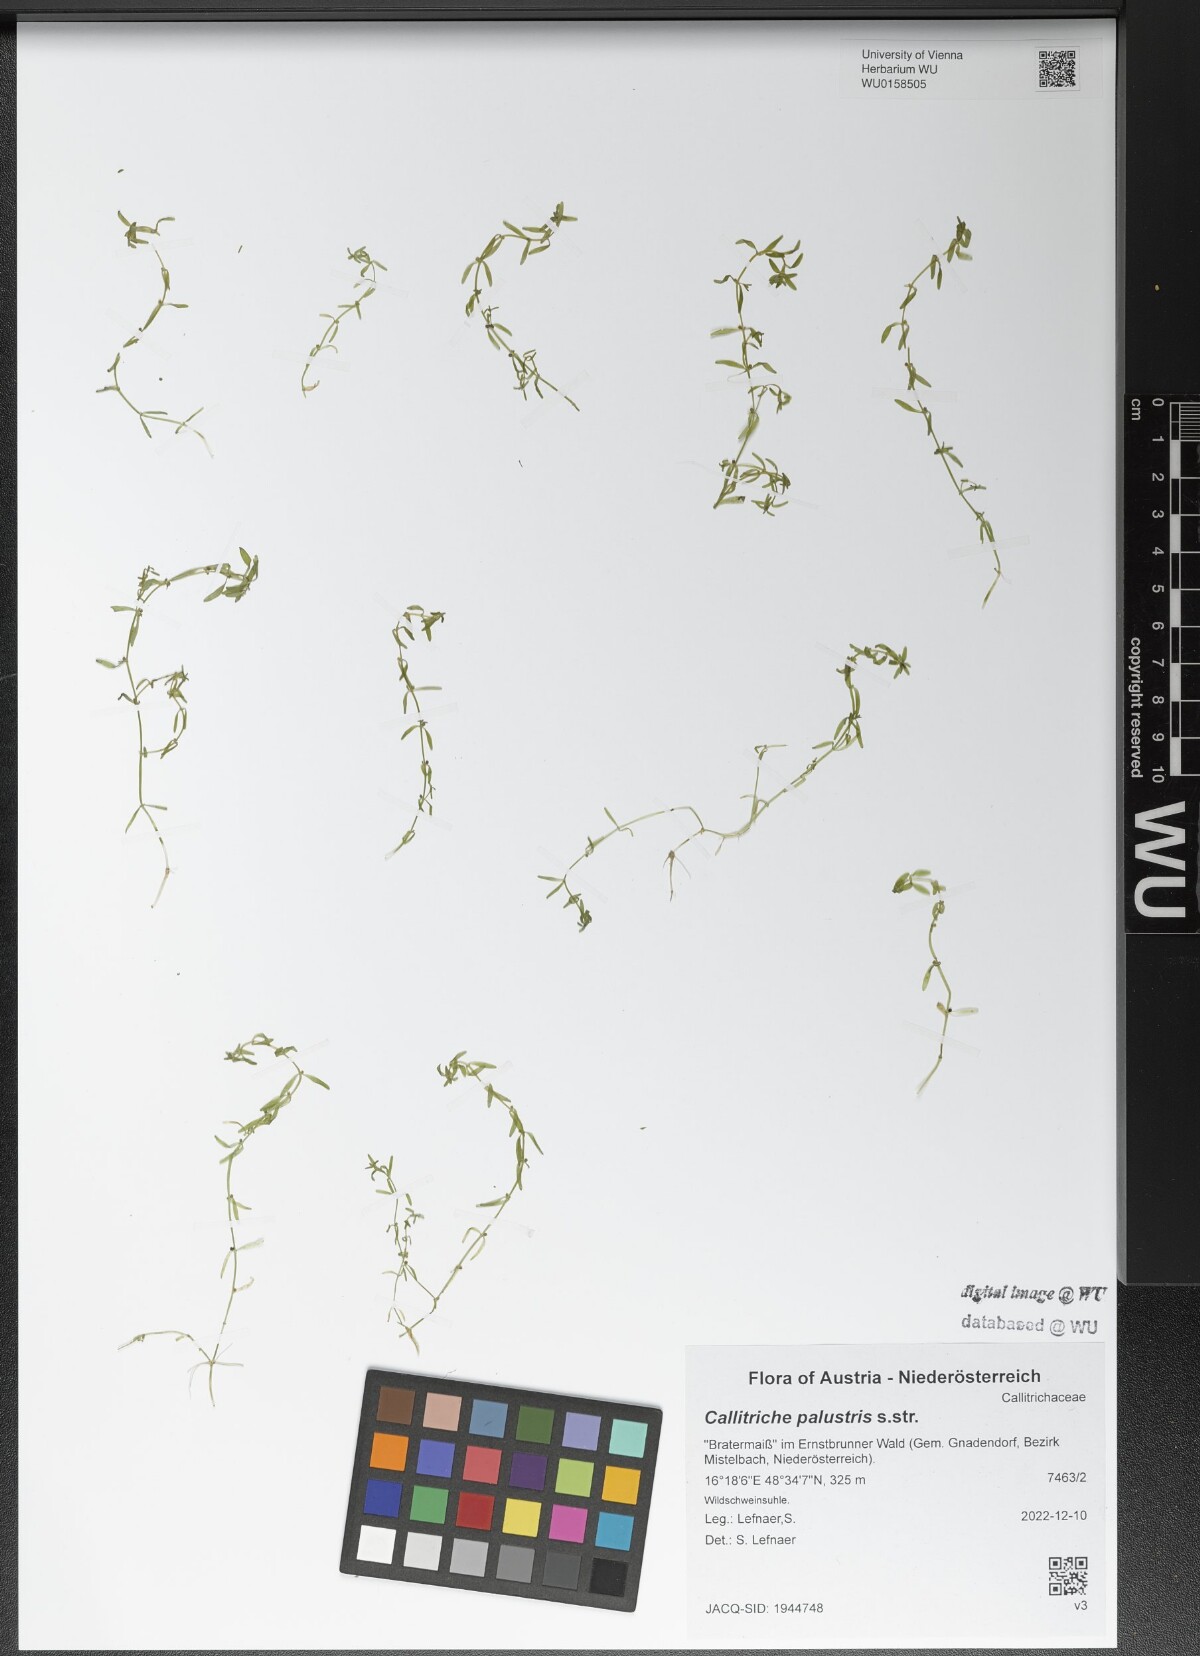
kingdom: Plantae
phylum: Tracheophyta
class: Magnoliopsida
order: Lamiales
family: Plantaginaceae
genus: Callitriche
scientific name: Callitriche palustris
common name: Spring water-starwort
